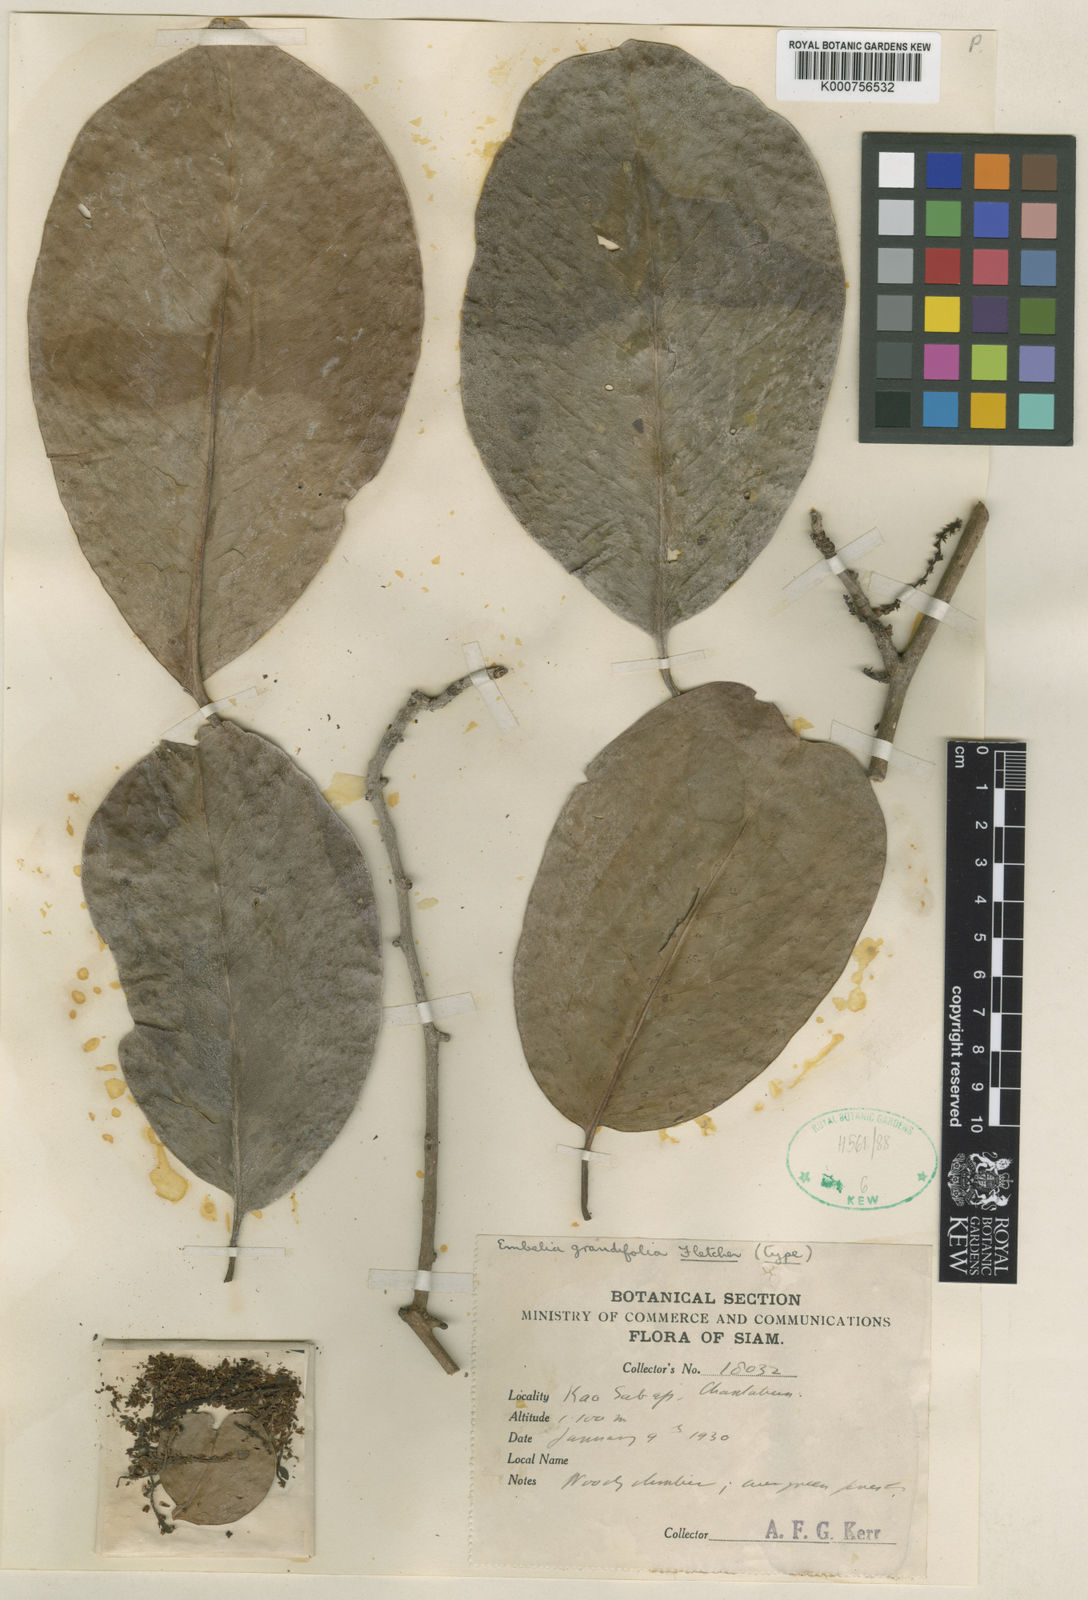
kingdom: Plantae
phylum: Tracheophyta
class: Magnoliopsida
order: Ericales
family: Primulaceae
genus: Embelia
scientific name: Embelia grandifolia
